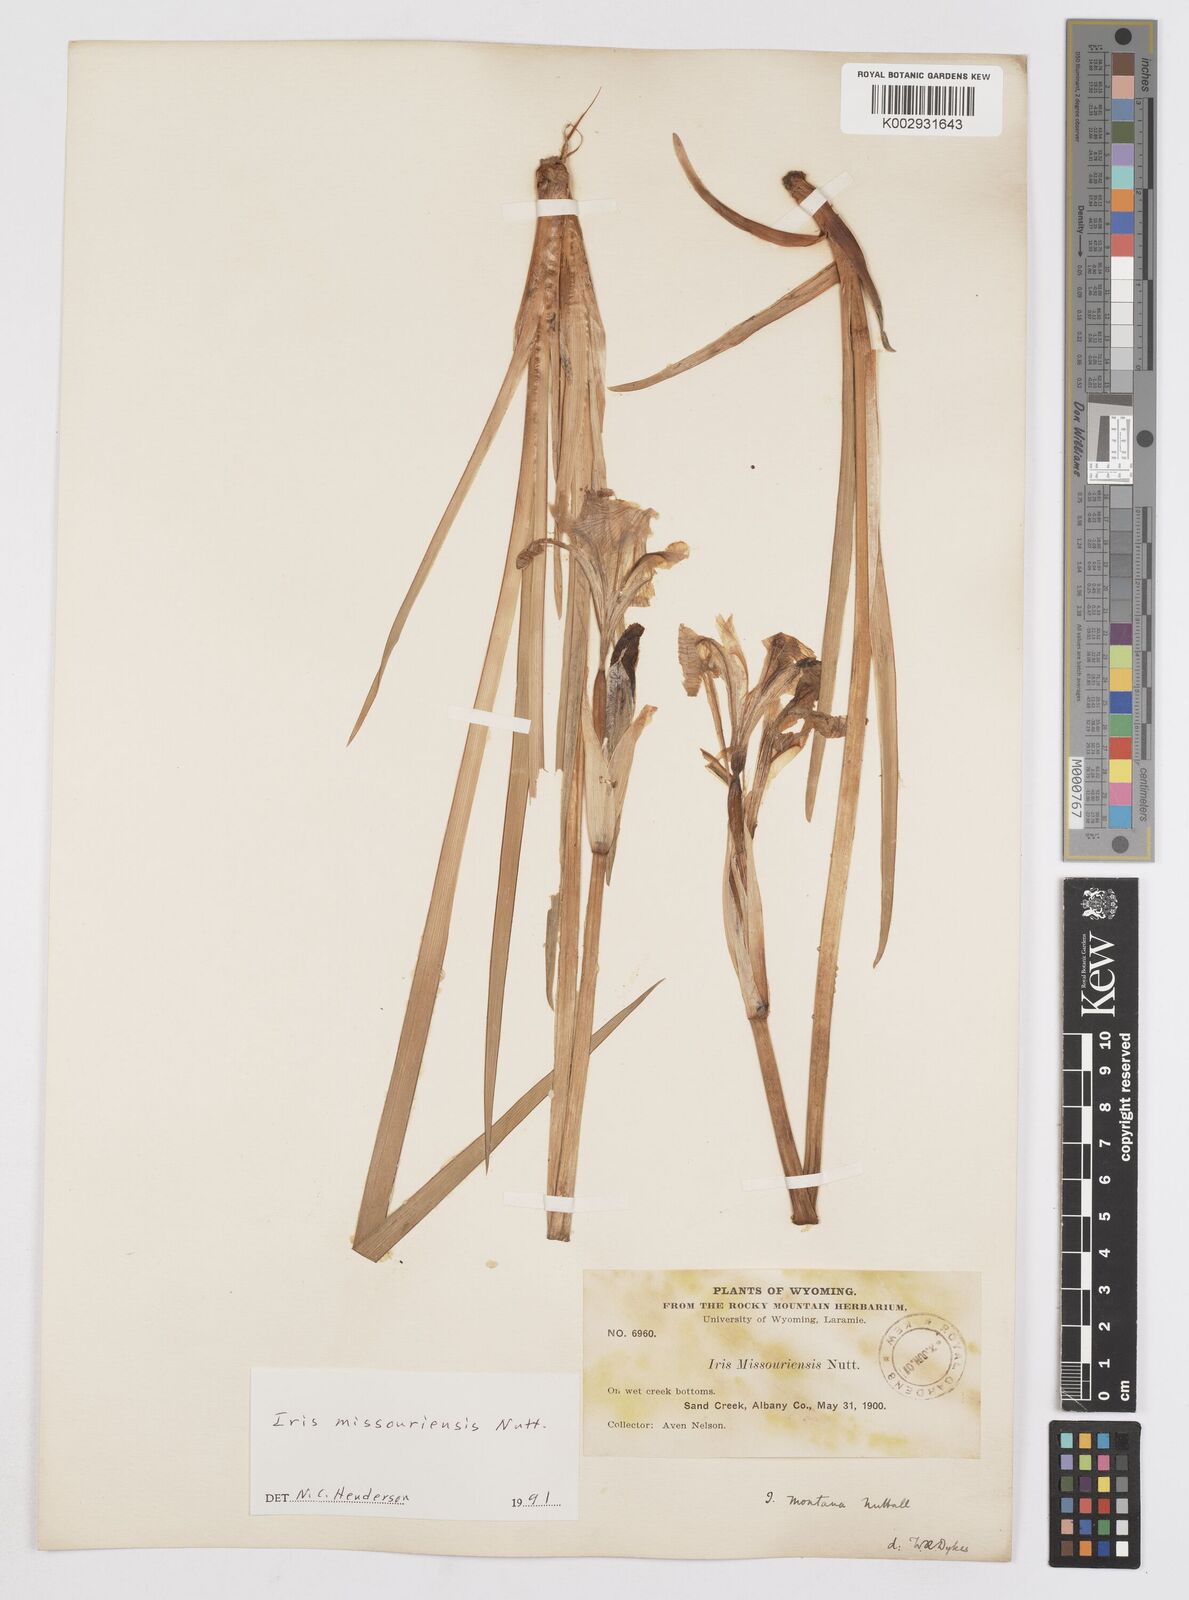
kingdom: Plantae
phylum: Tracheophyta
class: Liliopsida
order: Asparagales
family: Iridaceae
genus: Iris
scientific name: Iris missouriensis
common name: Rocky mountain iris
